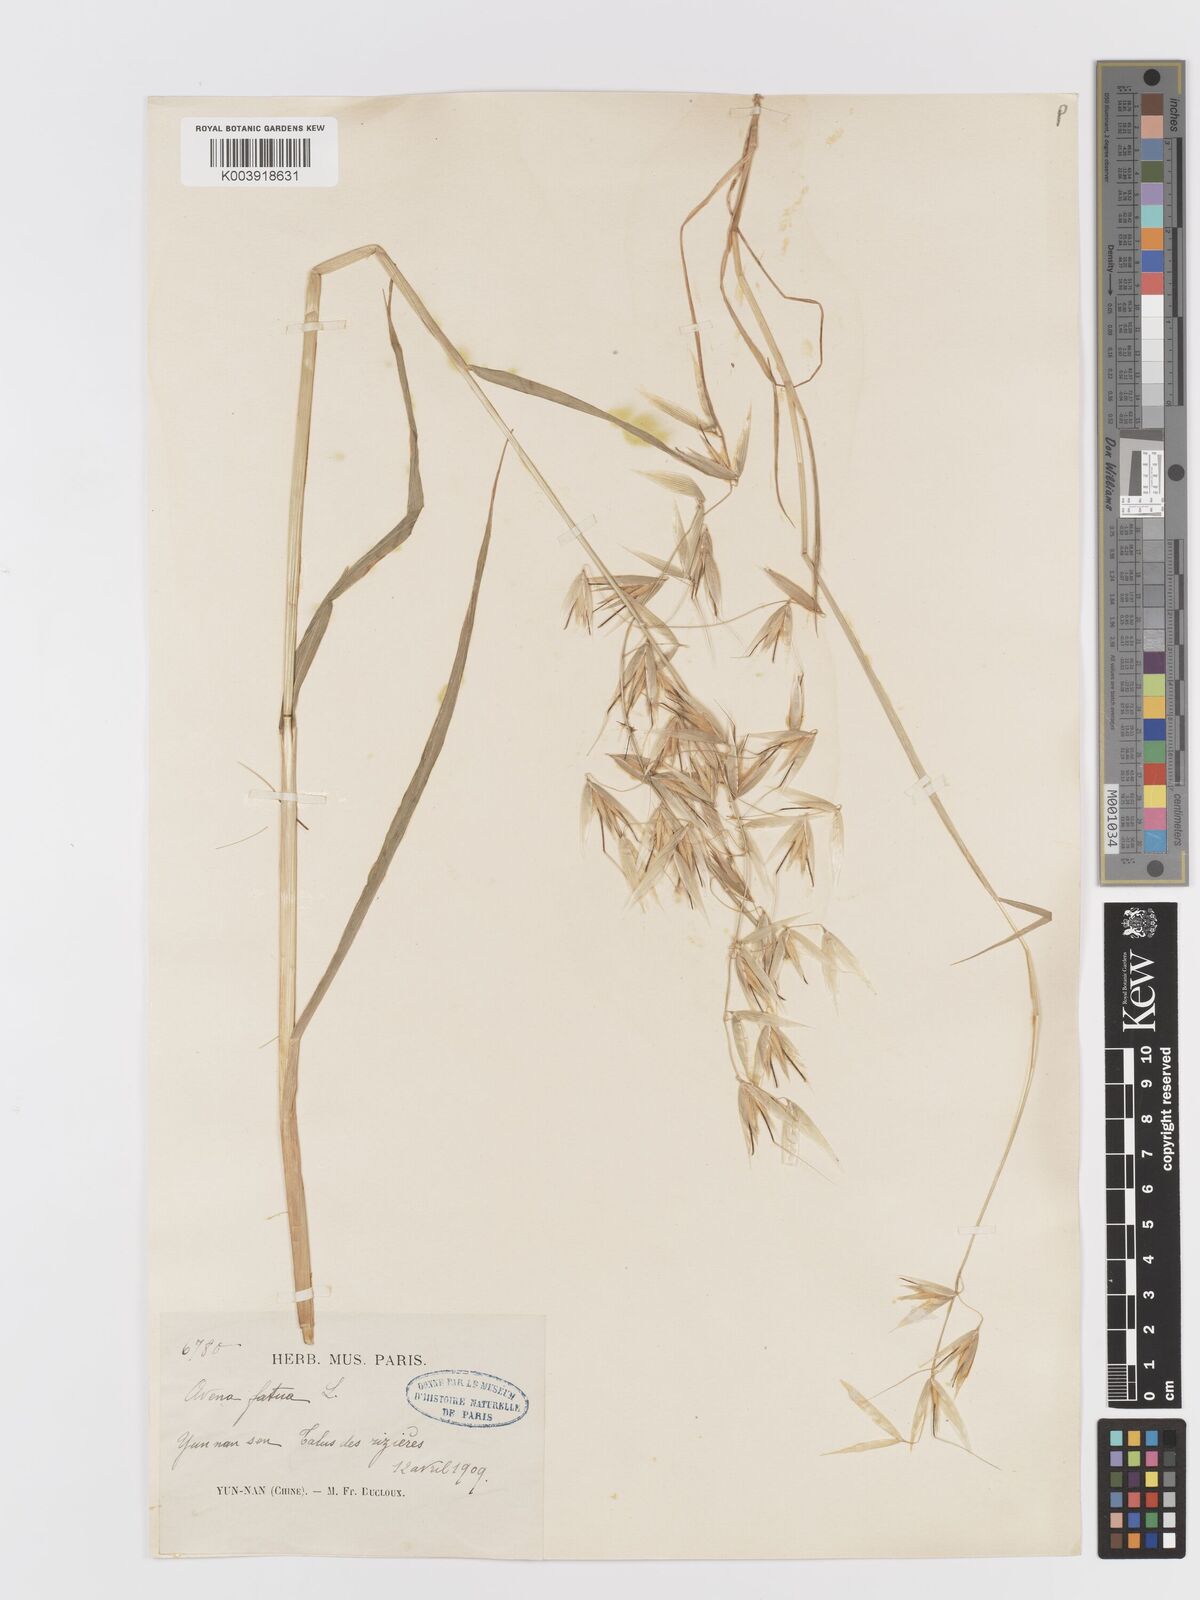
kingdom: Plantae
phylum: Tracheophyta
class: Liliopsida
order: Poales
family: Poaceae
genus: Avena
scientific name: Avena fatua
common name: Wild oat
